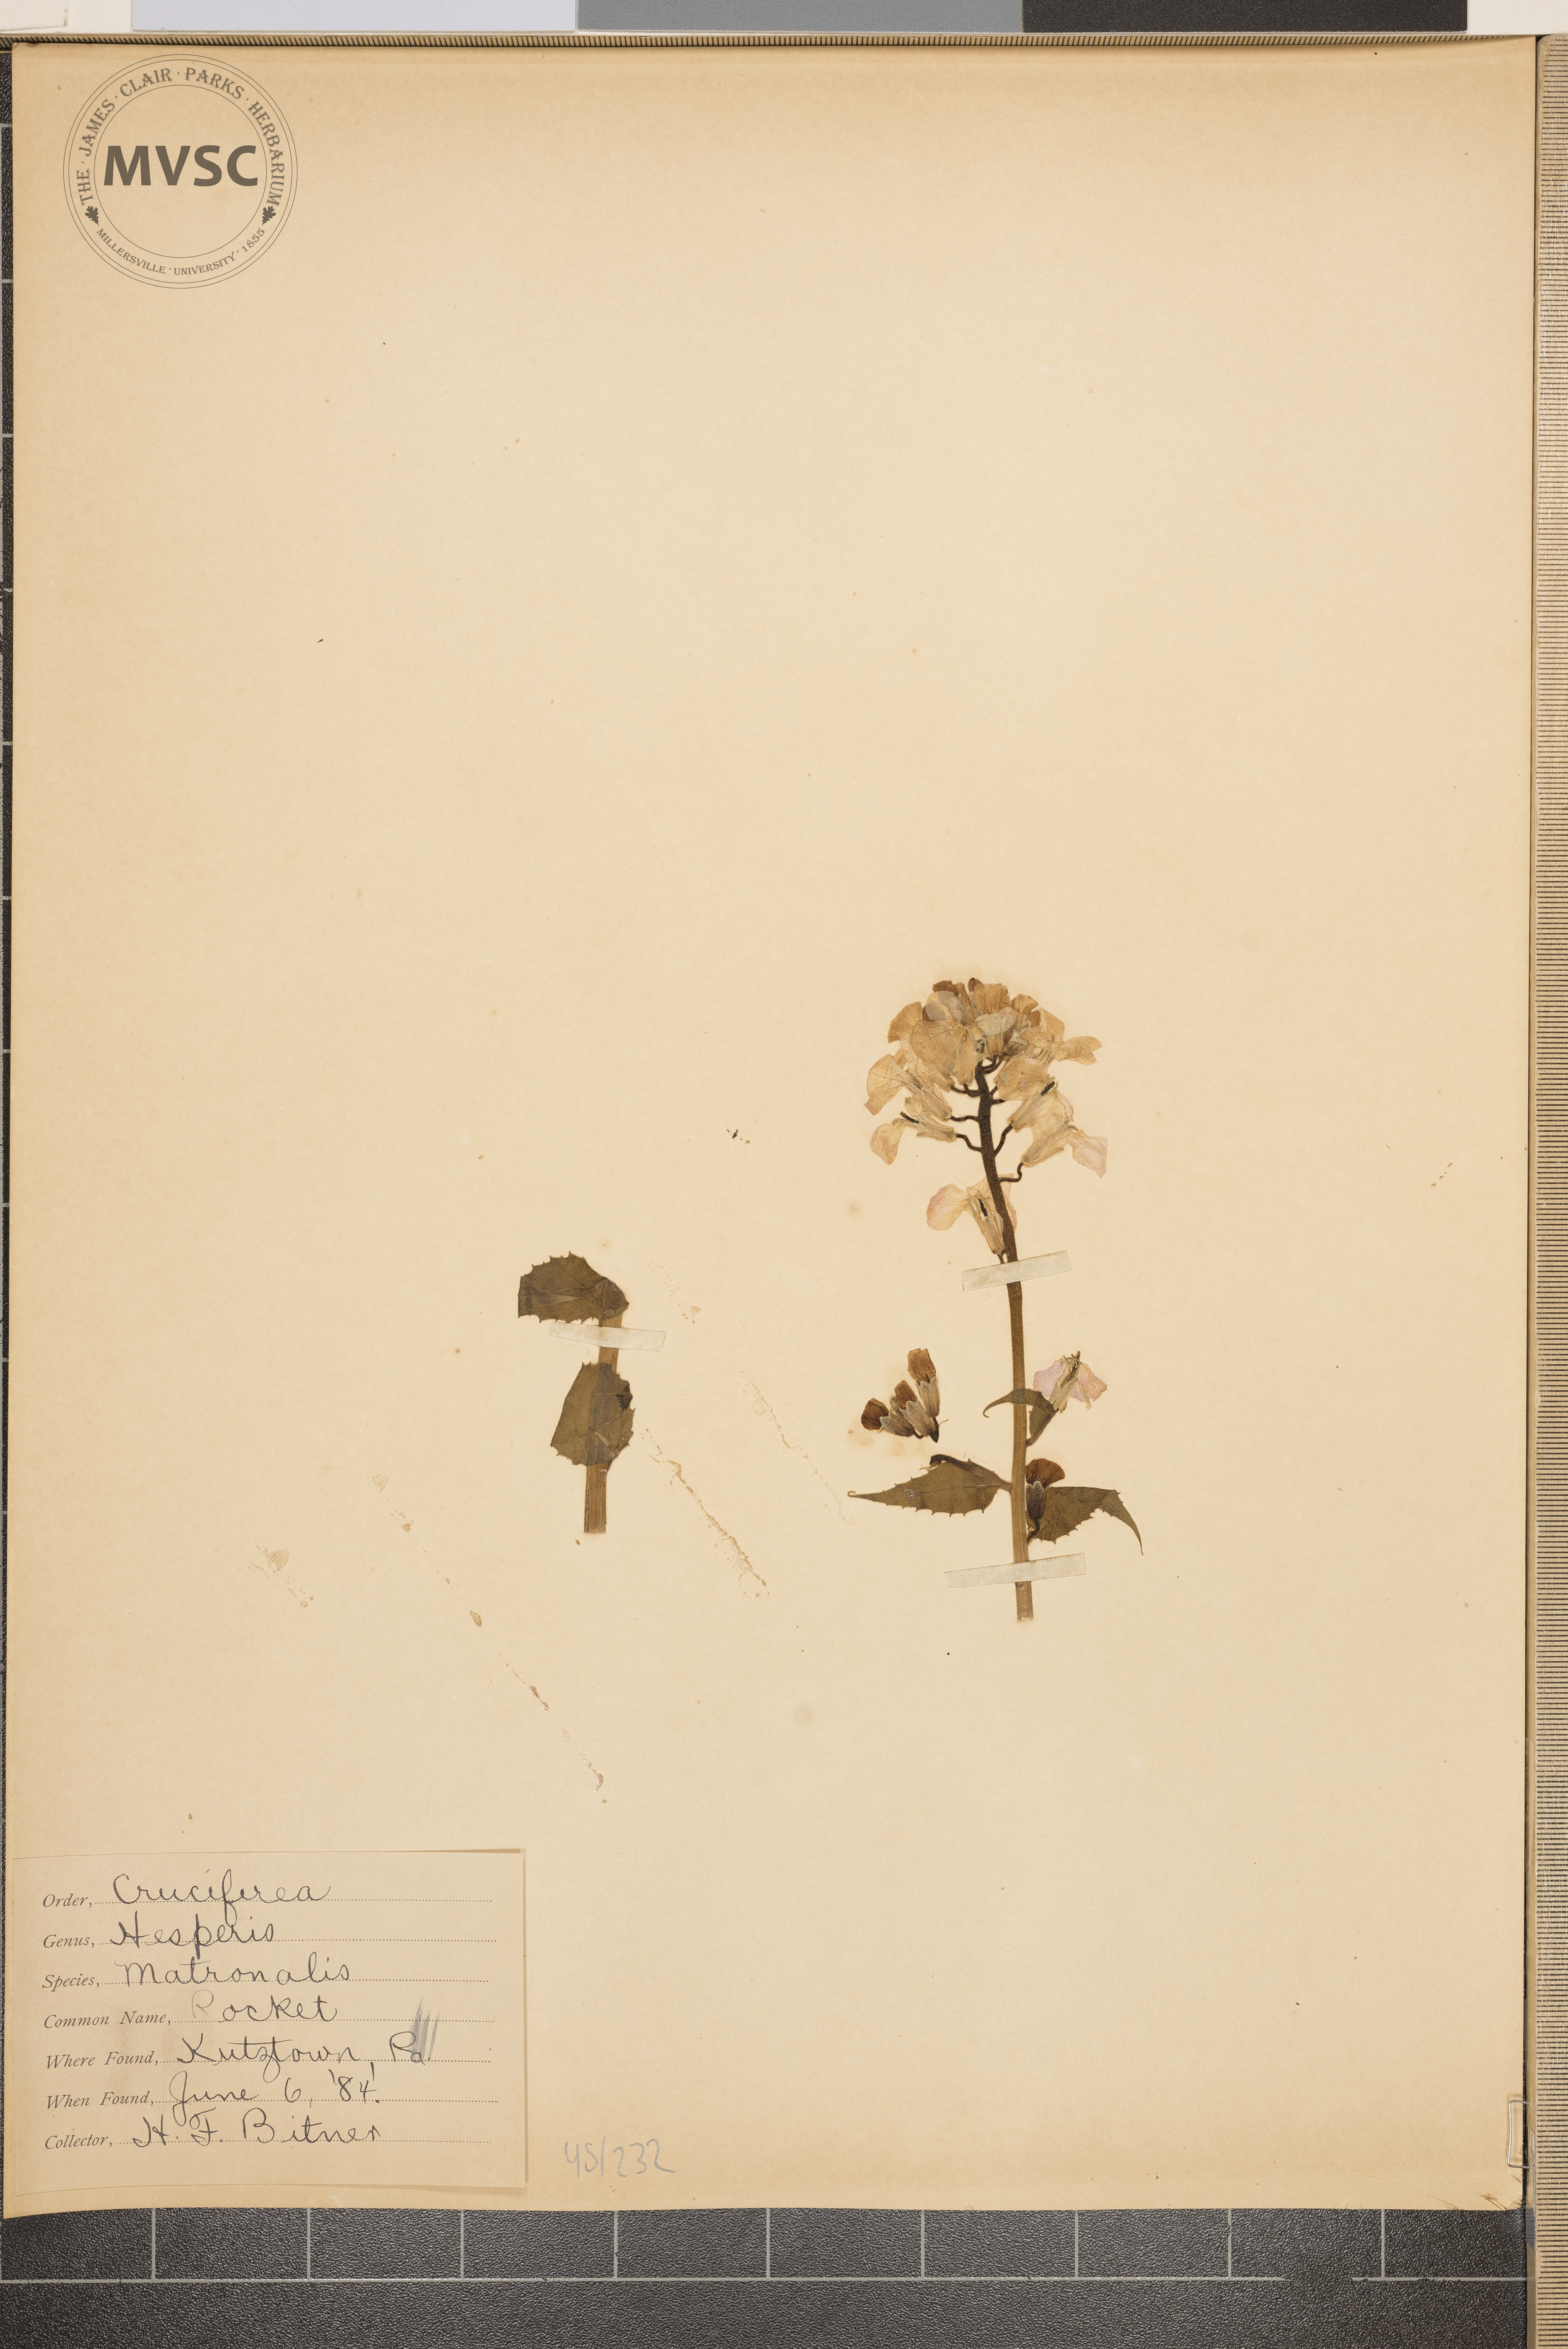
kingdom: Plantae
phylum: Tracheophyta
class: Magnoliopsida
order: Brassicales
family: Brassicaceae
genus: Hesperis
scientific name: Hesperis matronalis
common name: Rocket
